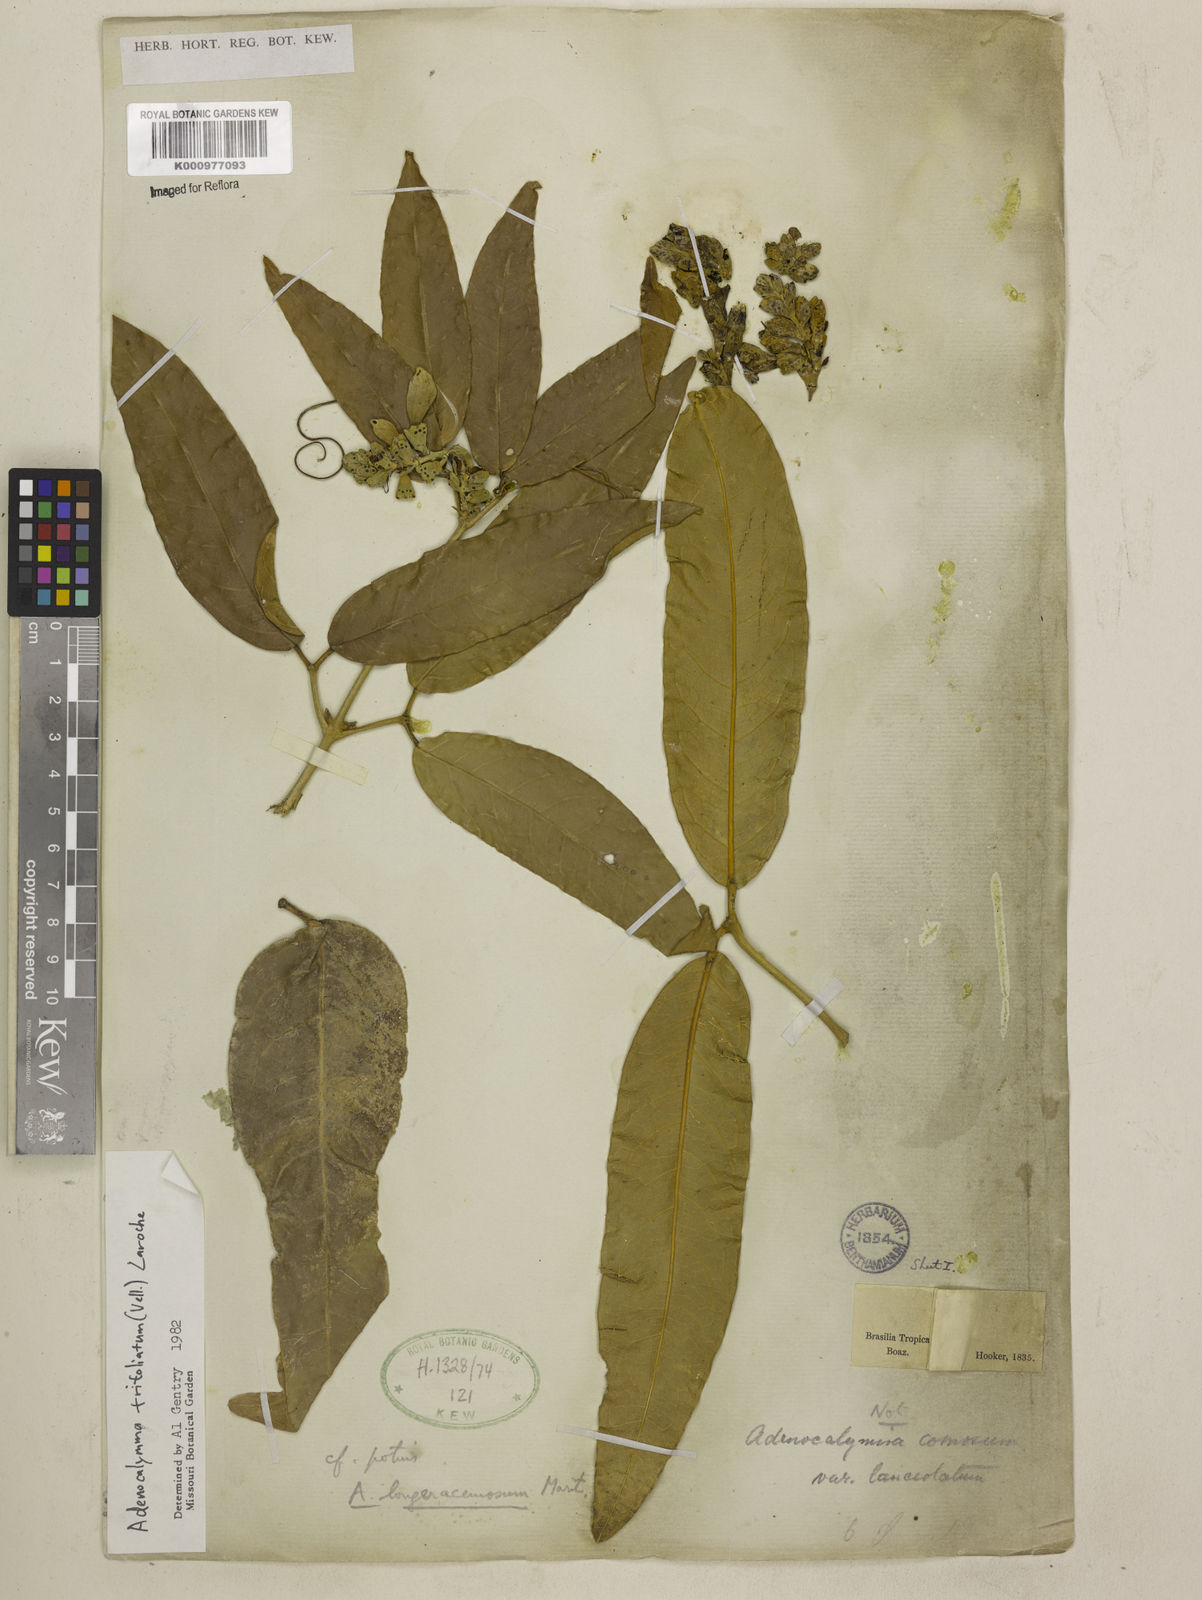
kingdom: Plantae
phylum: Tracheophyta
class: Magnoliopsida
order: Lamiales
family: Bignoniaceae
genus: Adenocalymma
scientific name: Adenocalymma trifoliatum
